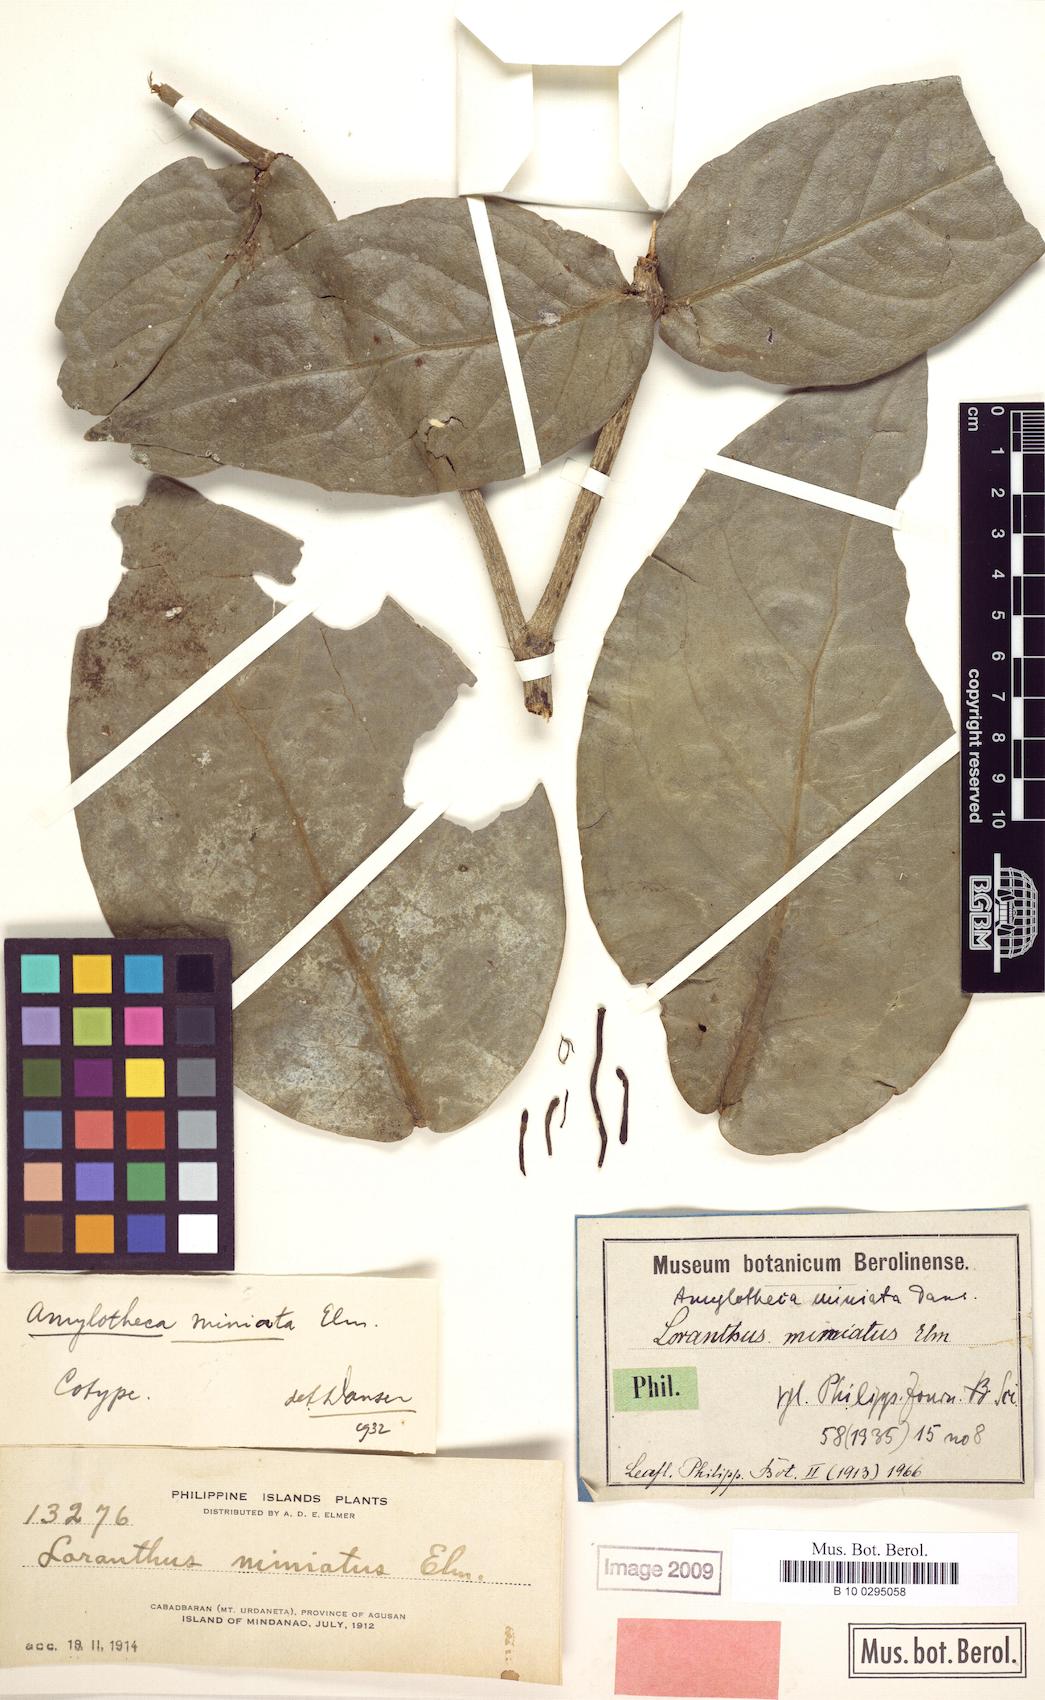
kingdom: Plantae
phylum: Tracheophyta
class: Magnoliopsida
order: Santalales
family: Loranthaceae
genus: Decaisnina
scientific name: Decaisnina miniata
